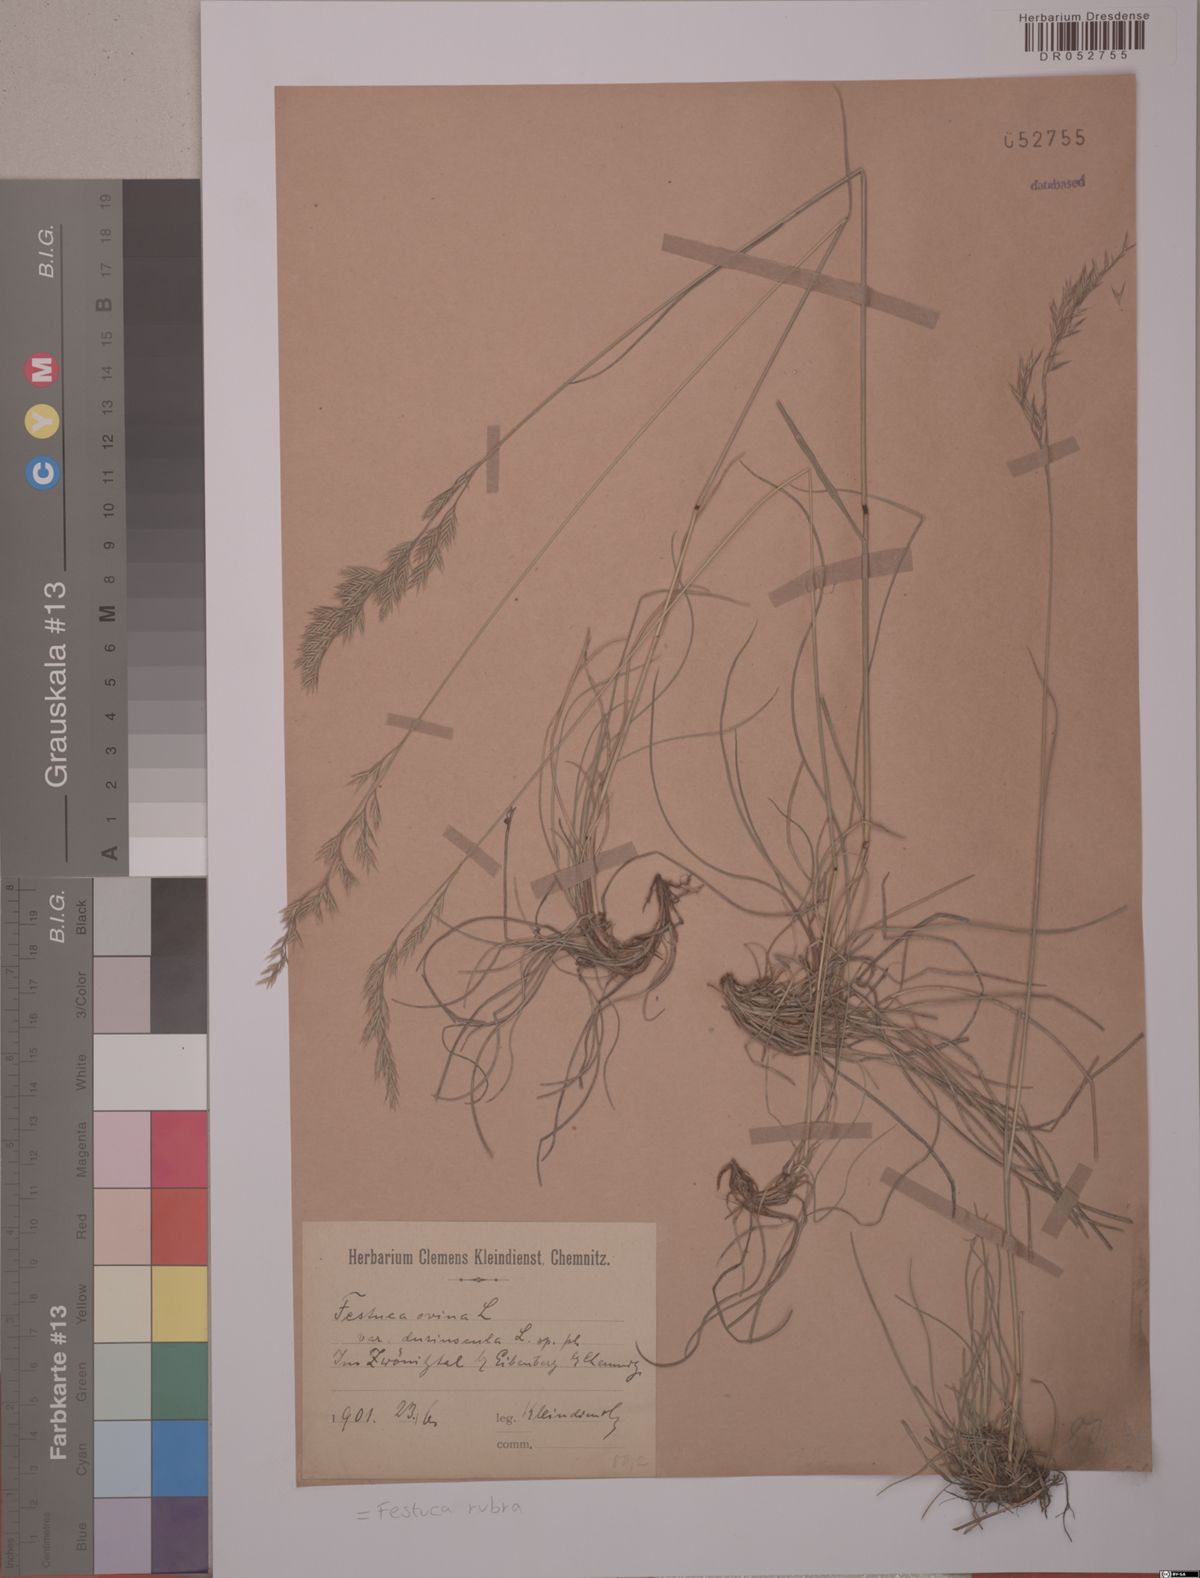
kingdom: Plantae
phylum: Tracheophyta
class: Liliopsida
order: Poales
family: Poaceae
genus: Festuca
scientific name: Festuca rubra
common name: Red fescue
